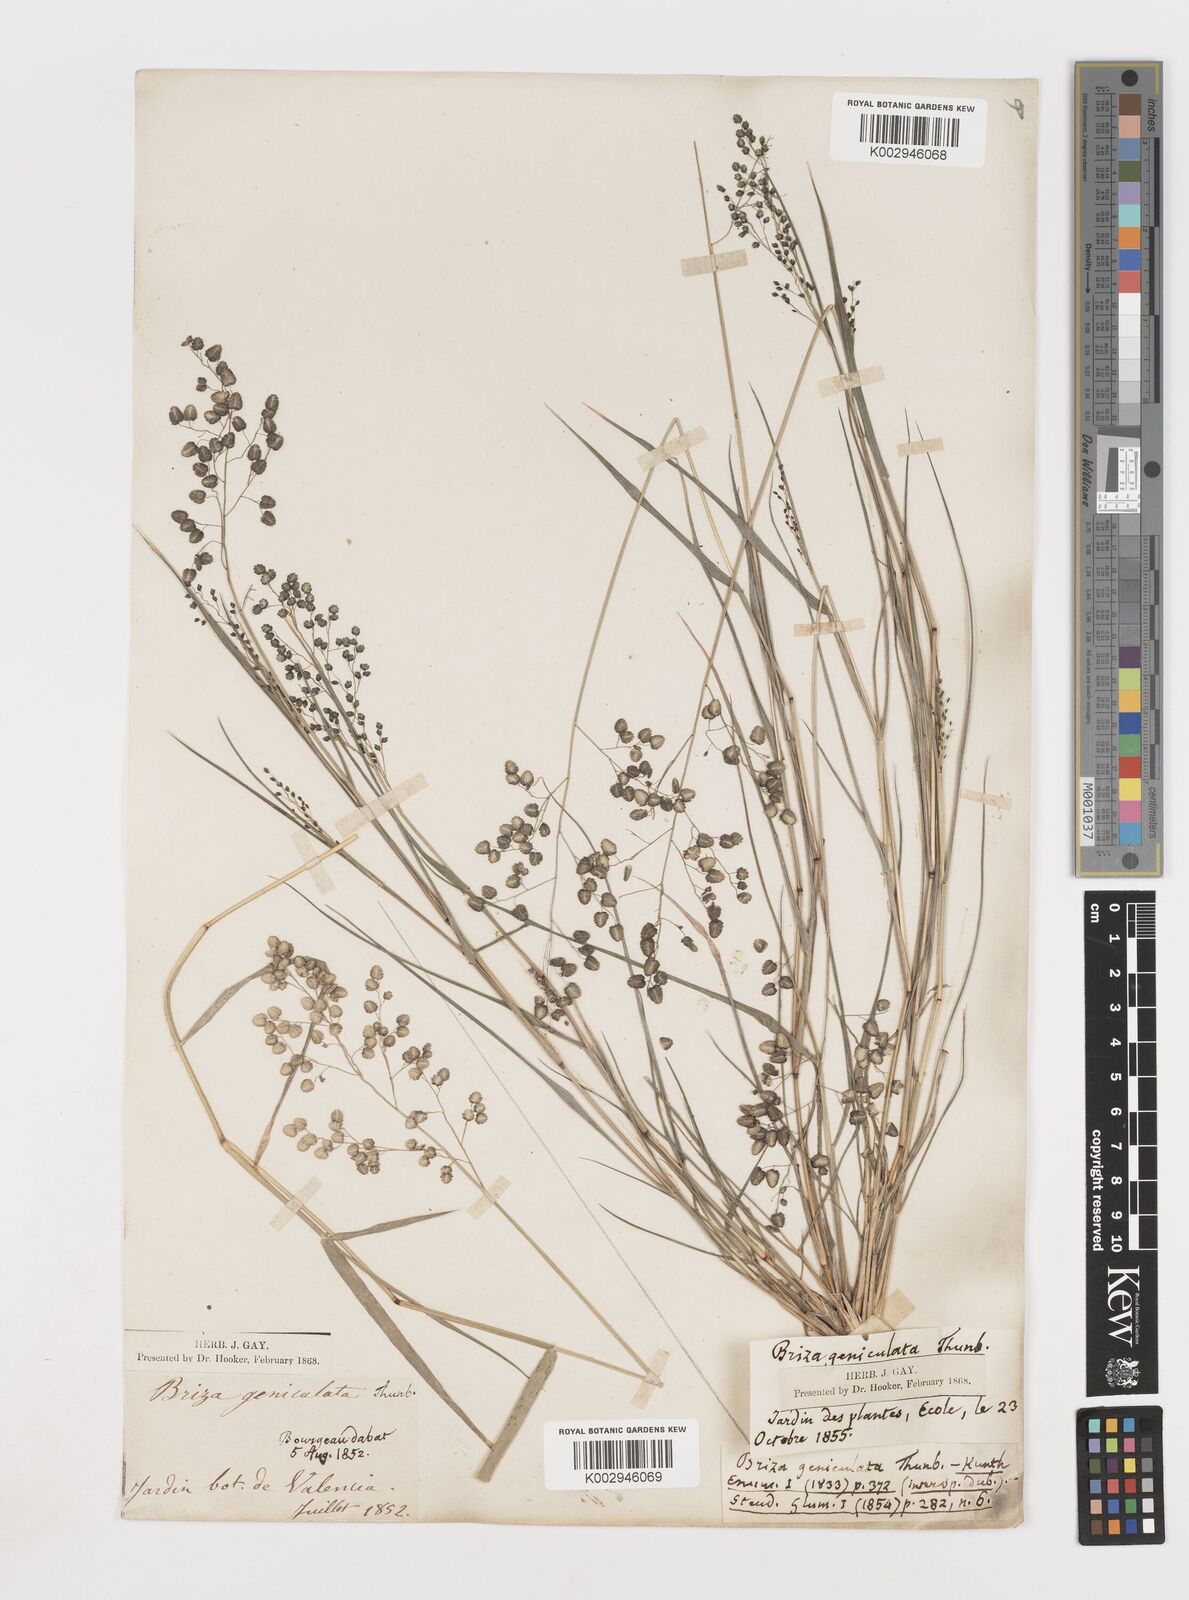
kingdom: Plantae
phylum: Tracheophyta
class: Liliopsida
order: Poales
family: Poaceae
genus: Eragrostis
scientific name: Eragrostis obtusa
